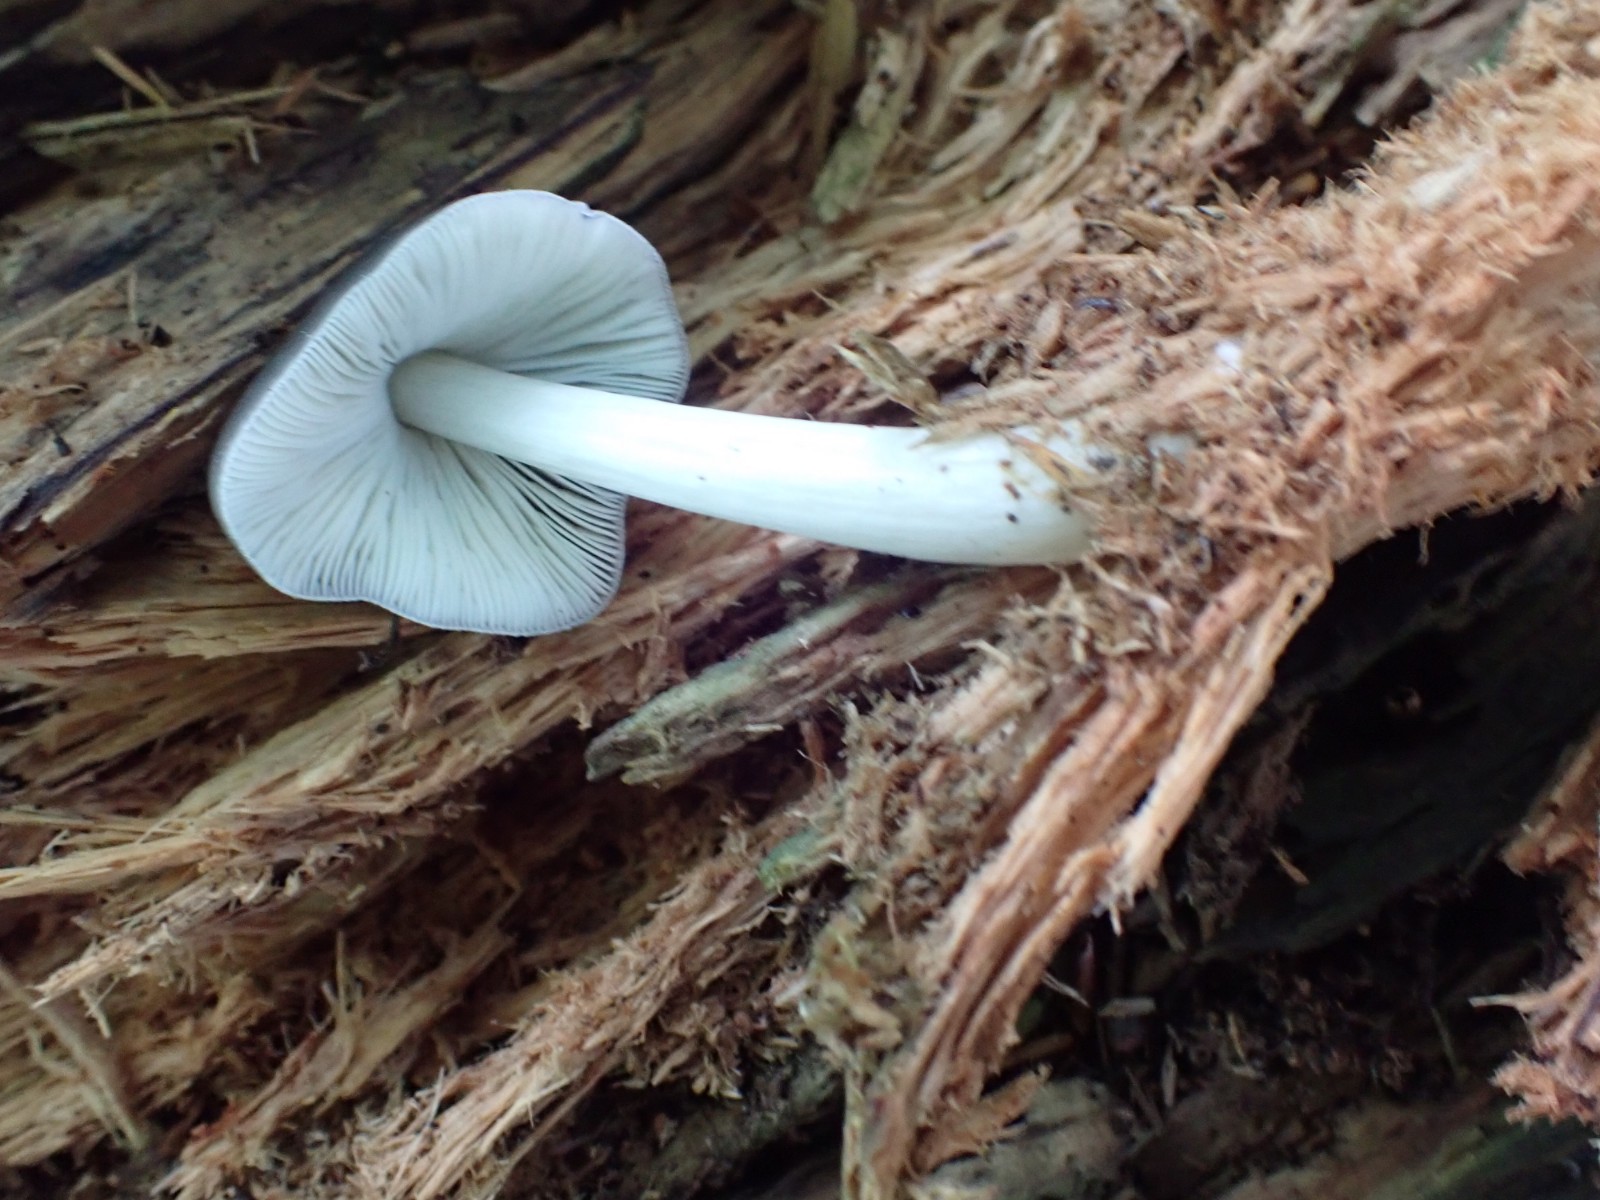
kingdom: Fungi
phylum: Basidiomycota
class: Agaricomycetes
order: Agaricales
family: Pluteaceae
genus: Pluteus
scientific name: Pluteus salicinus
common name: stiv skærmhat
